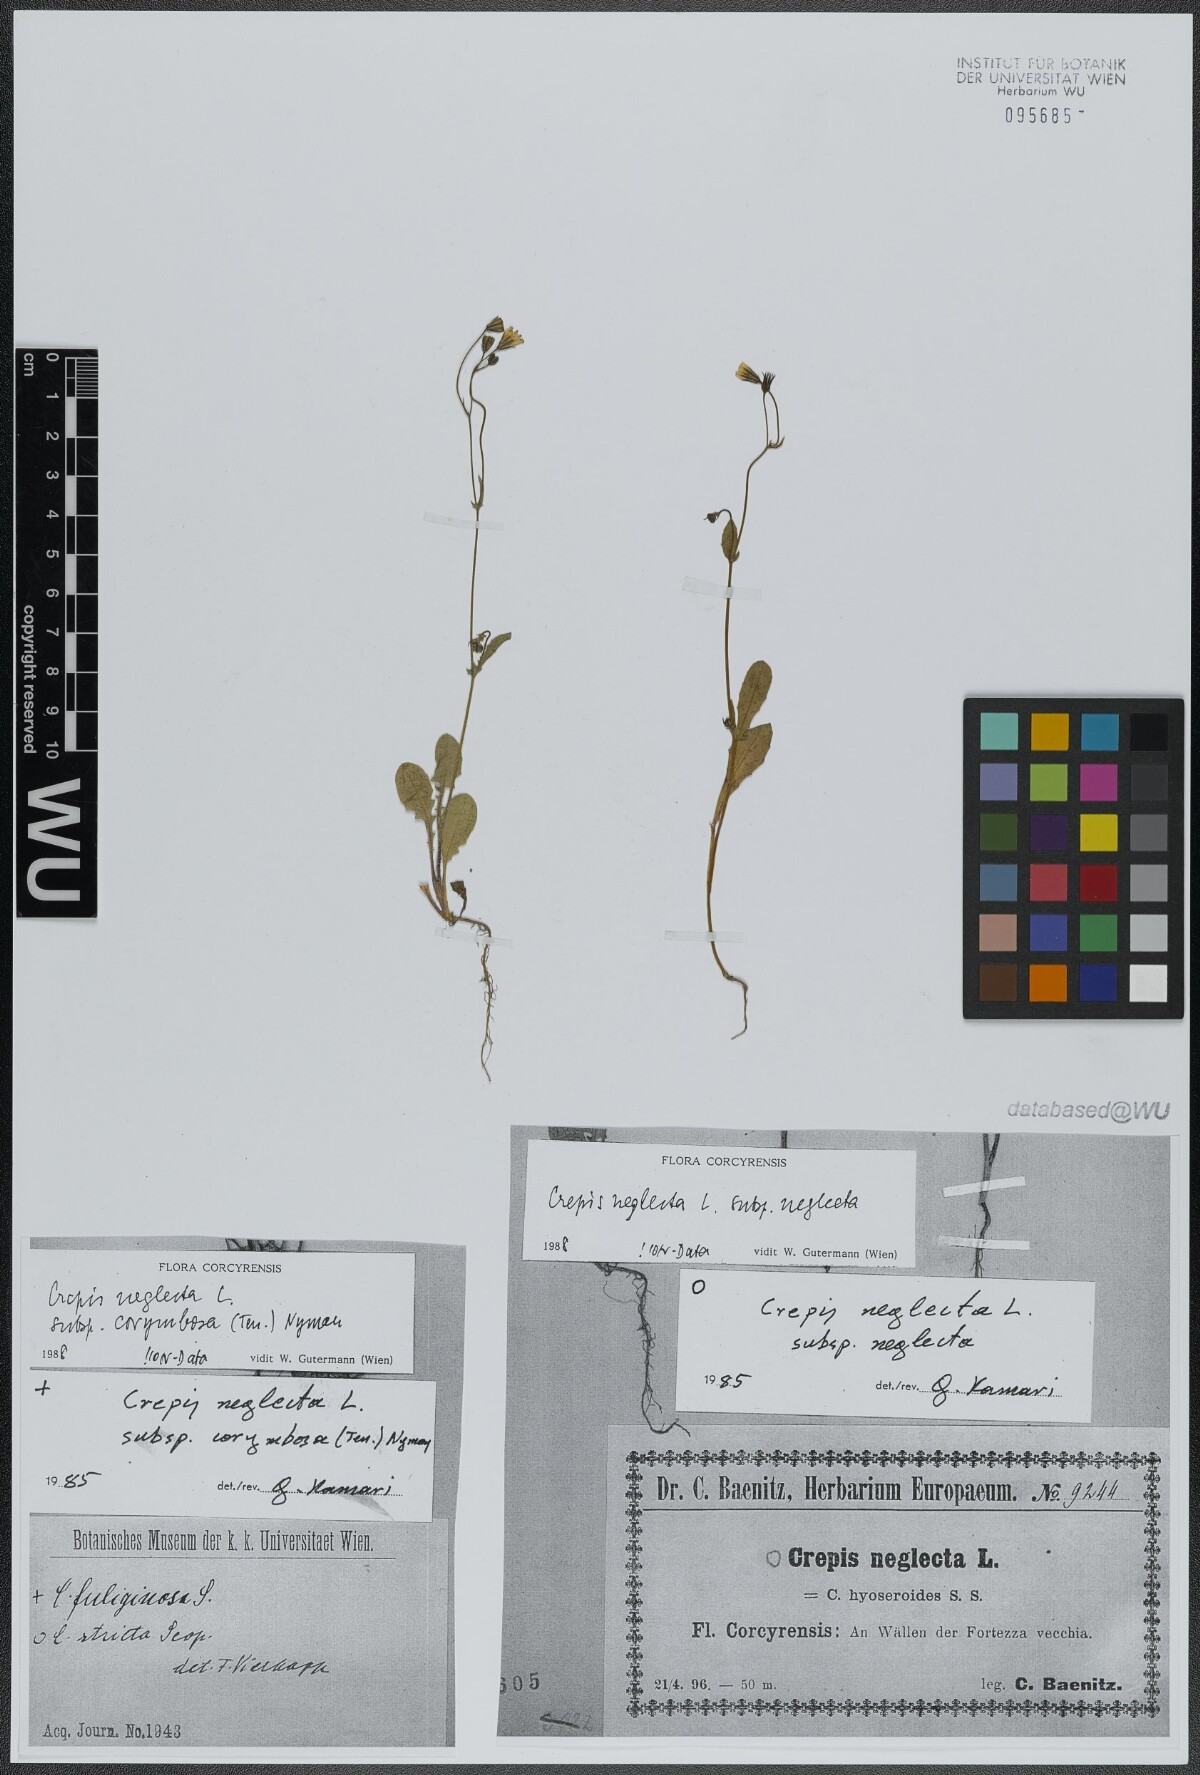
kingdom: Plantae
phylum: Tracheophyta
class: Magnoliopsida
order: Asterales
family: Asteraceae
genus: Crepis
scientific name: Crepis neglecta
